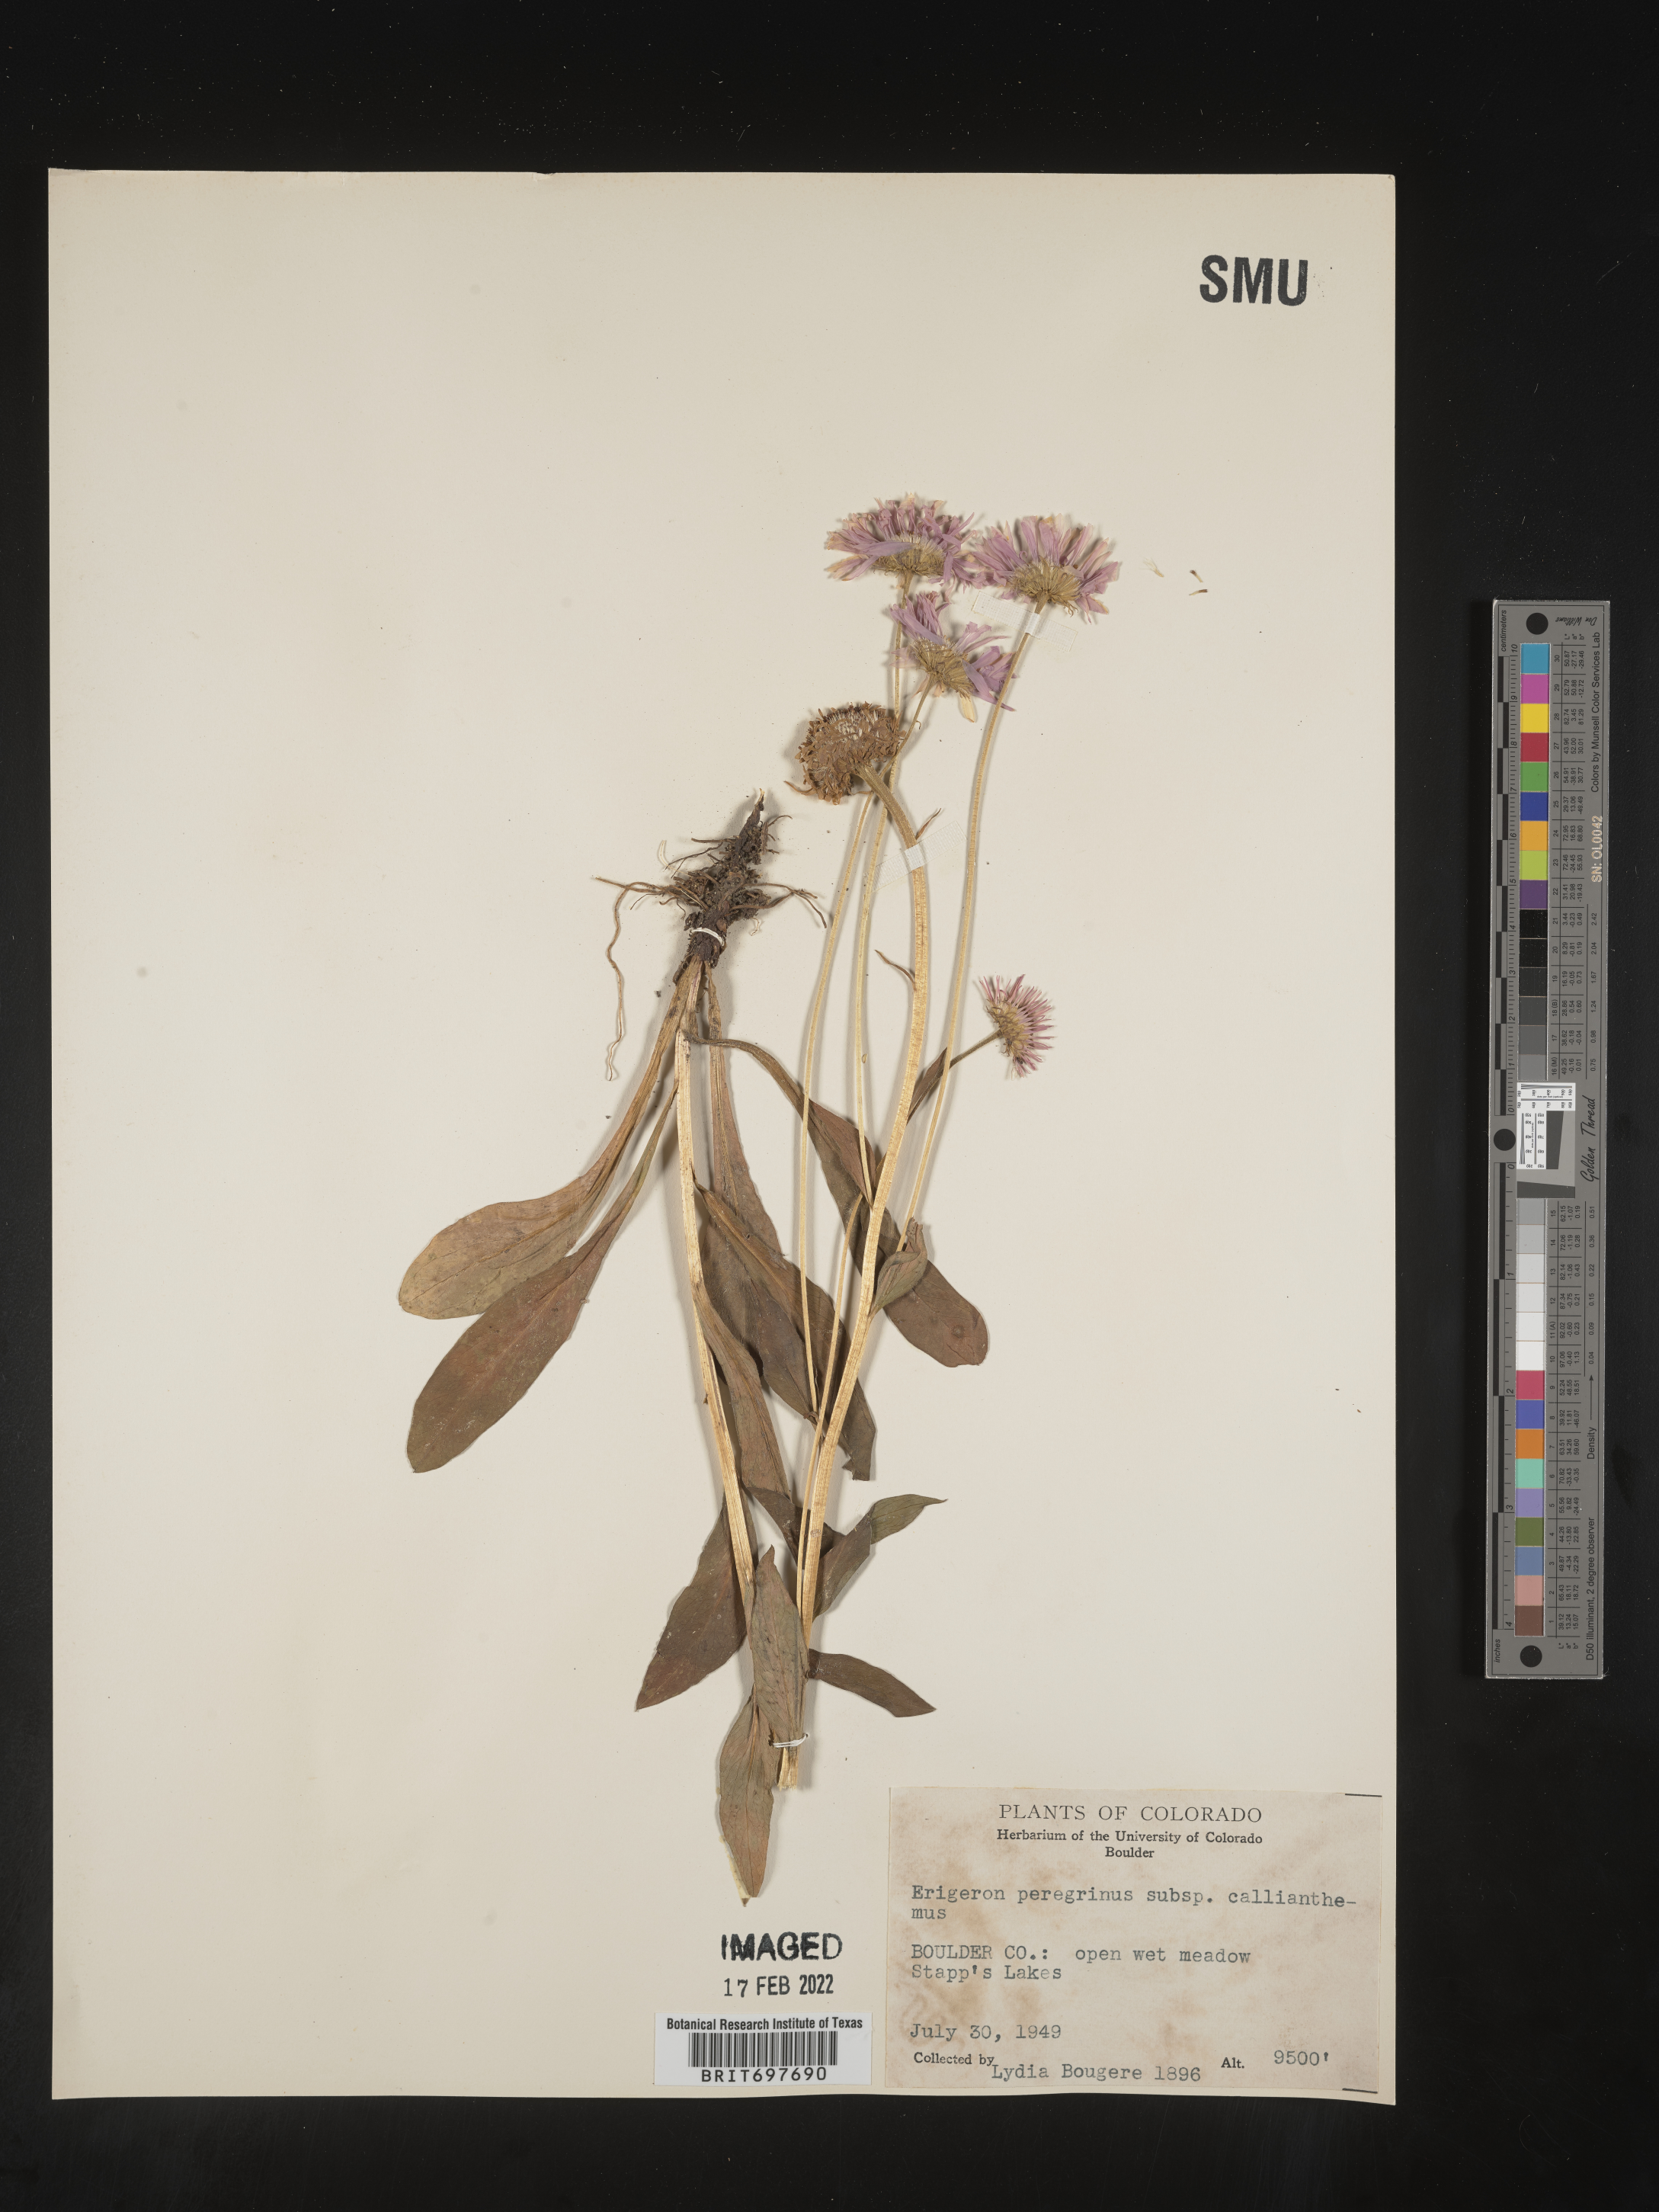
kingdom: Plantae
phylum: Tracheophyta
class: Magnoliopsida
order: Asterales
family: Asteraceae
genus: Erigeron
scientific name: Erigeron glacialis
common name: Subalpine fleabane
